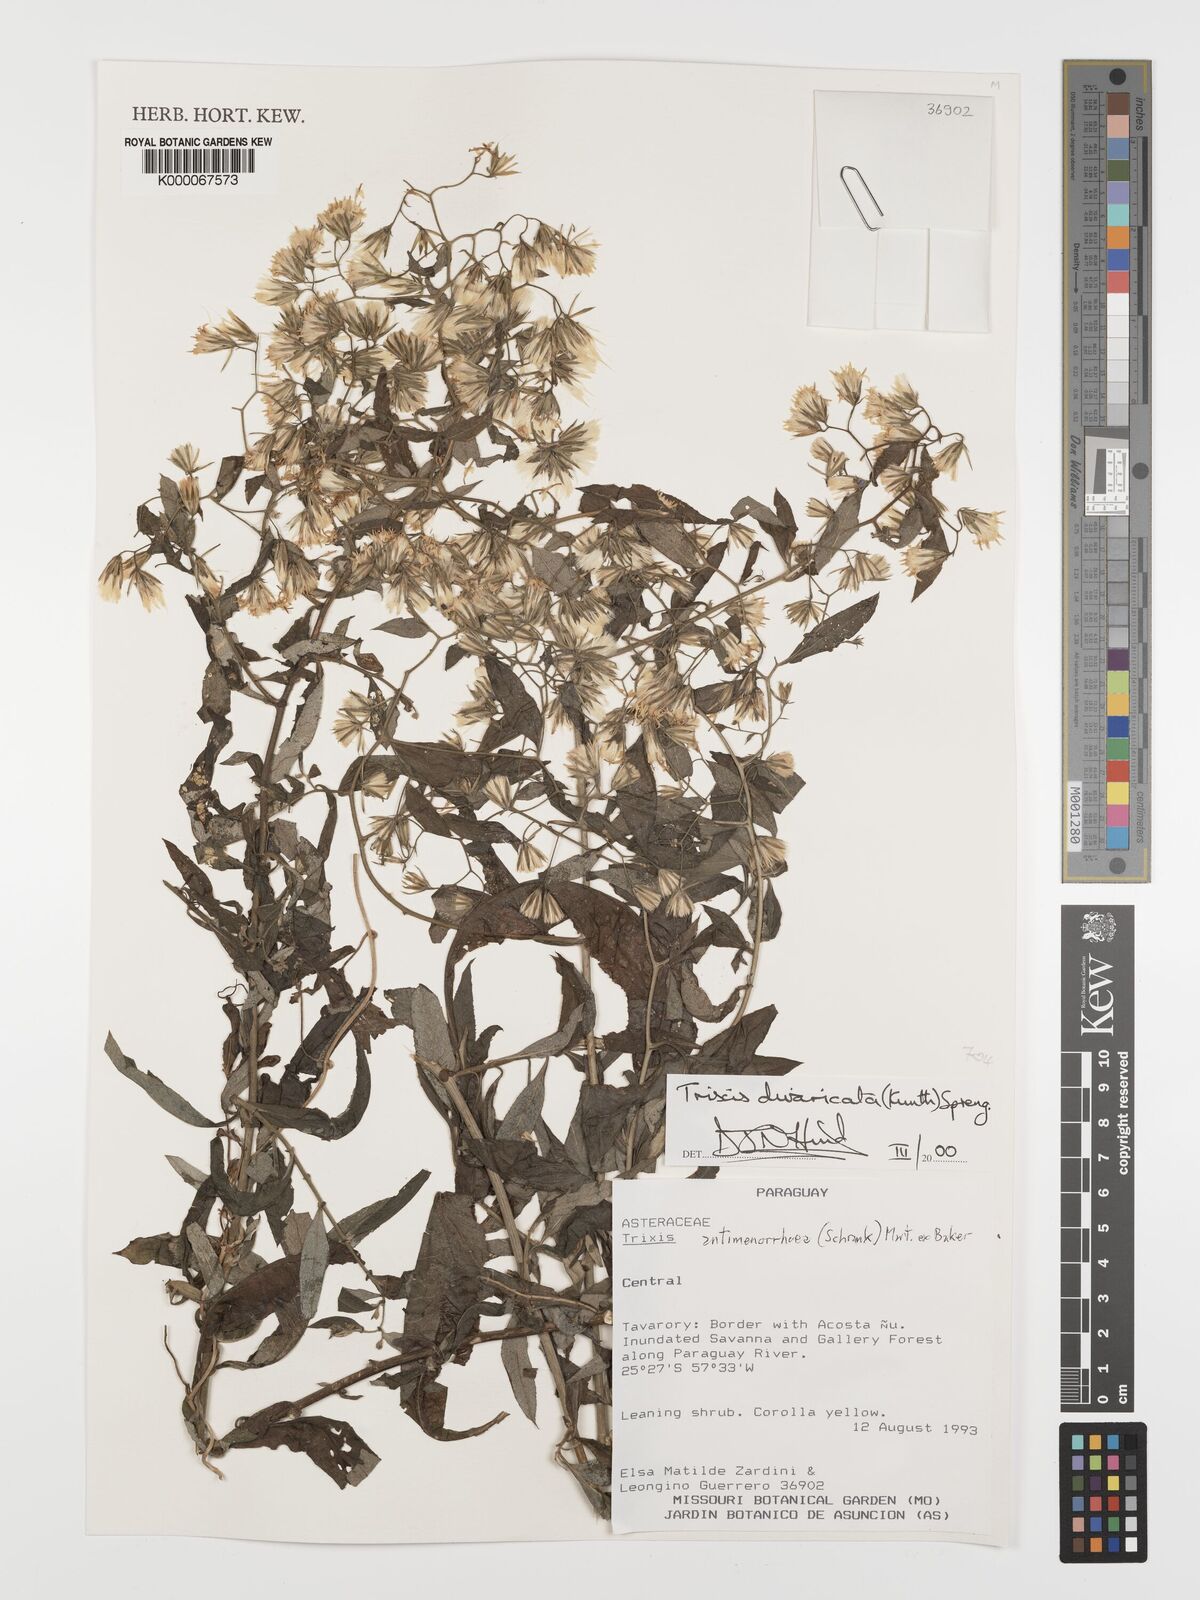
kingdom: Plantae
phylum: Tracheophyta
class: Magnoliopsida
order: Asterales
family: Asteraceae
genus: Trixis
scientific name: Trixis divaricata
